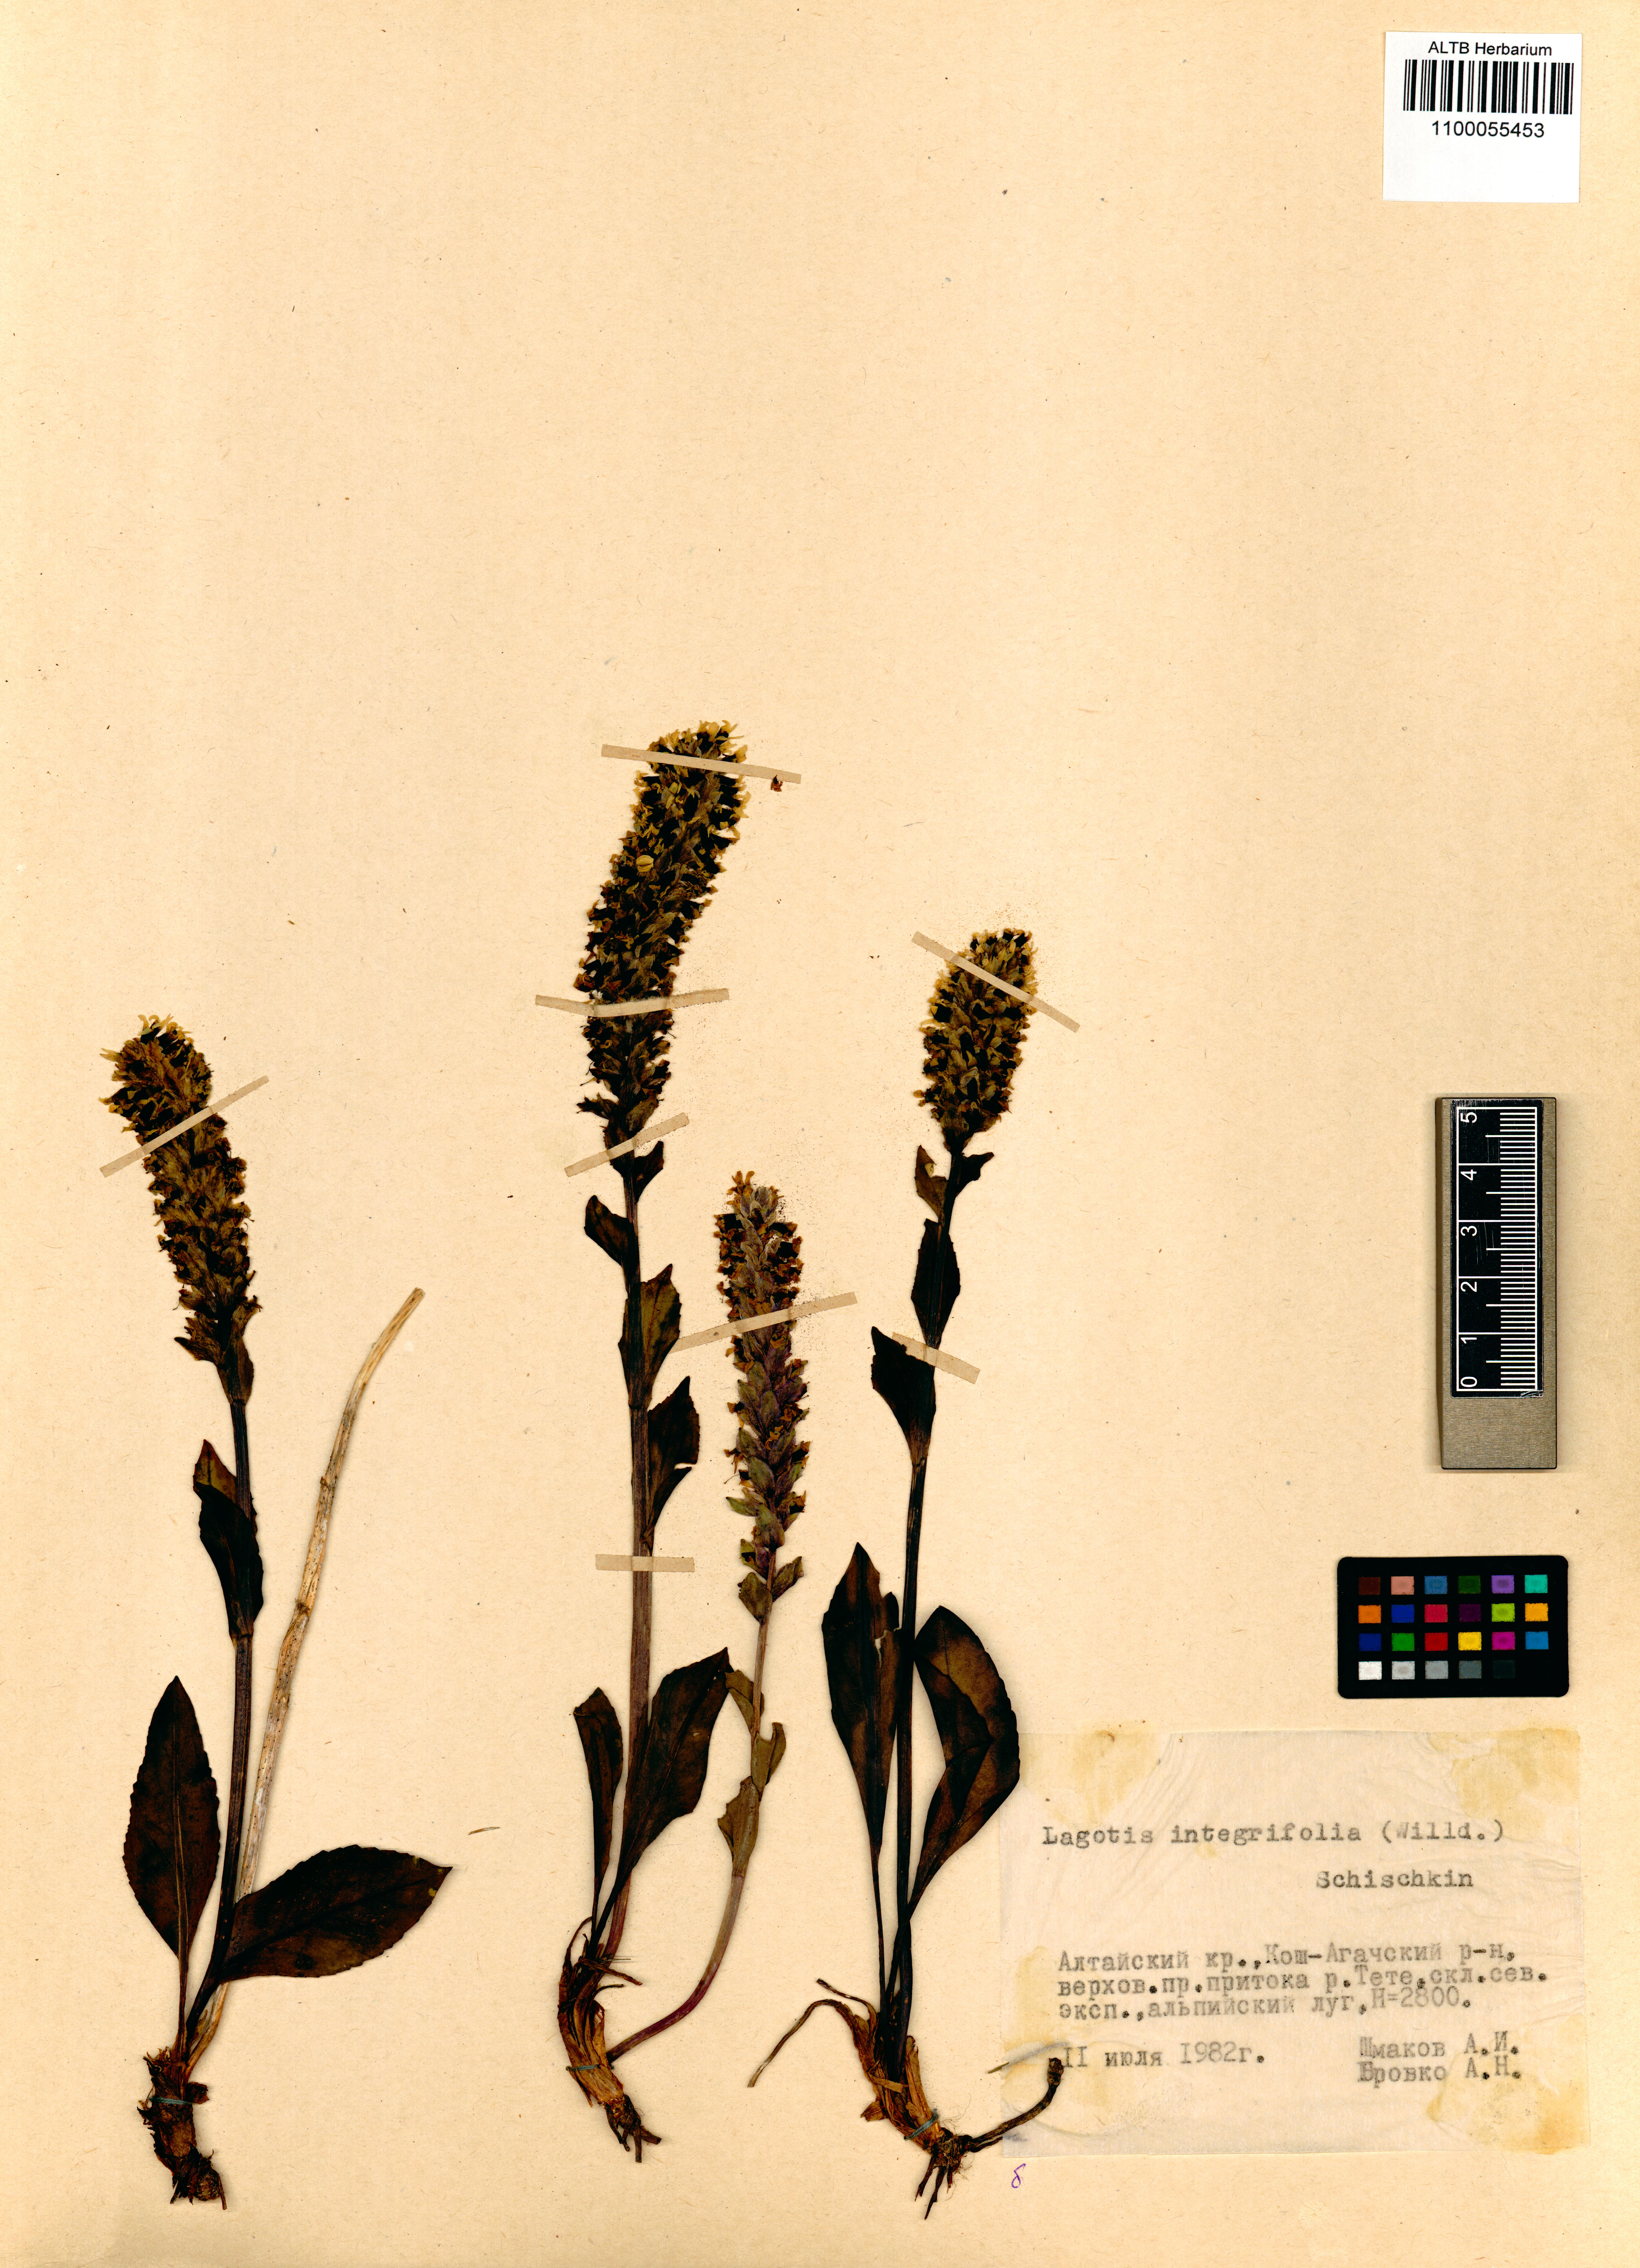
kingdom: Plantae
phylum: Tracheophyta
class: Magnoliopsida
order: Lamiales
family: Plantaginaceae
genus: Lagotis
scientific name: Lagotis integrifolia
